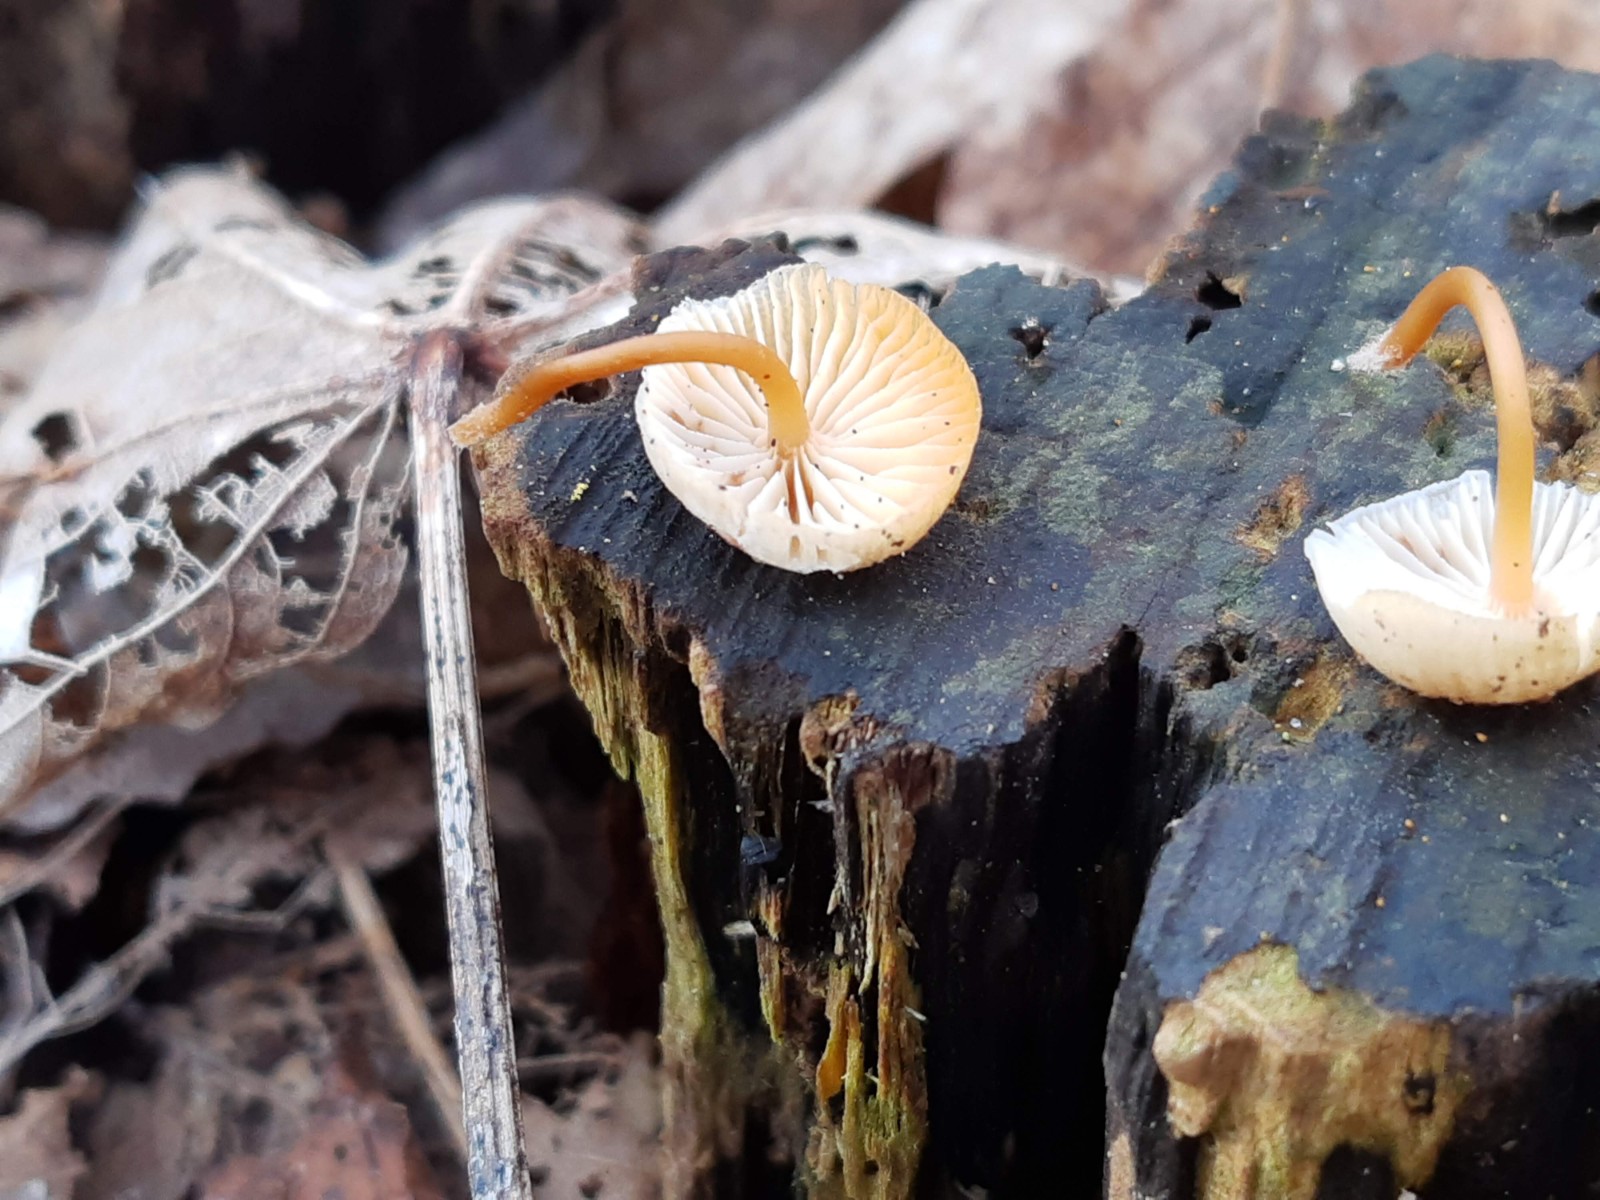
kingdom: Fungi
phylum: Basidiomycota
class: Agaricomycetes
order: Agaricales
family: Marasmiaceae
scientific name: Marasmiaceae
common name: bruskhatfamilien
